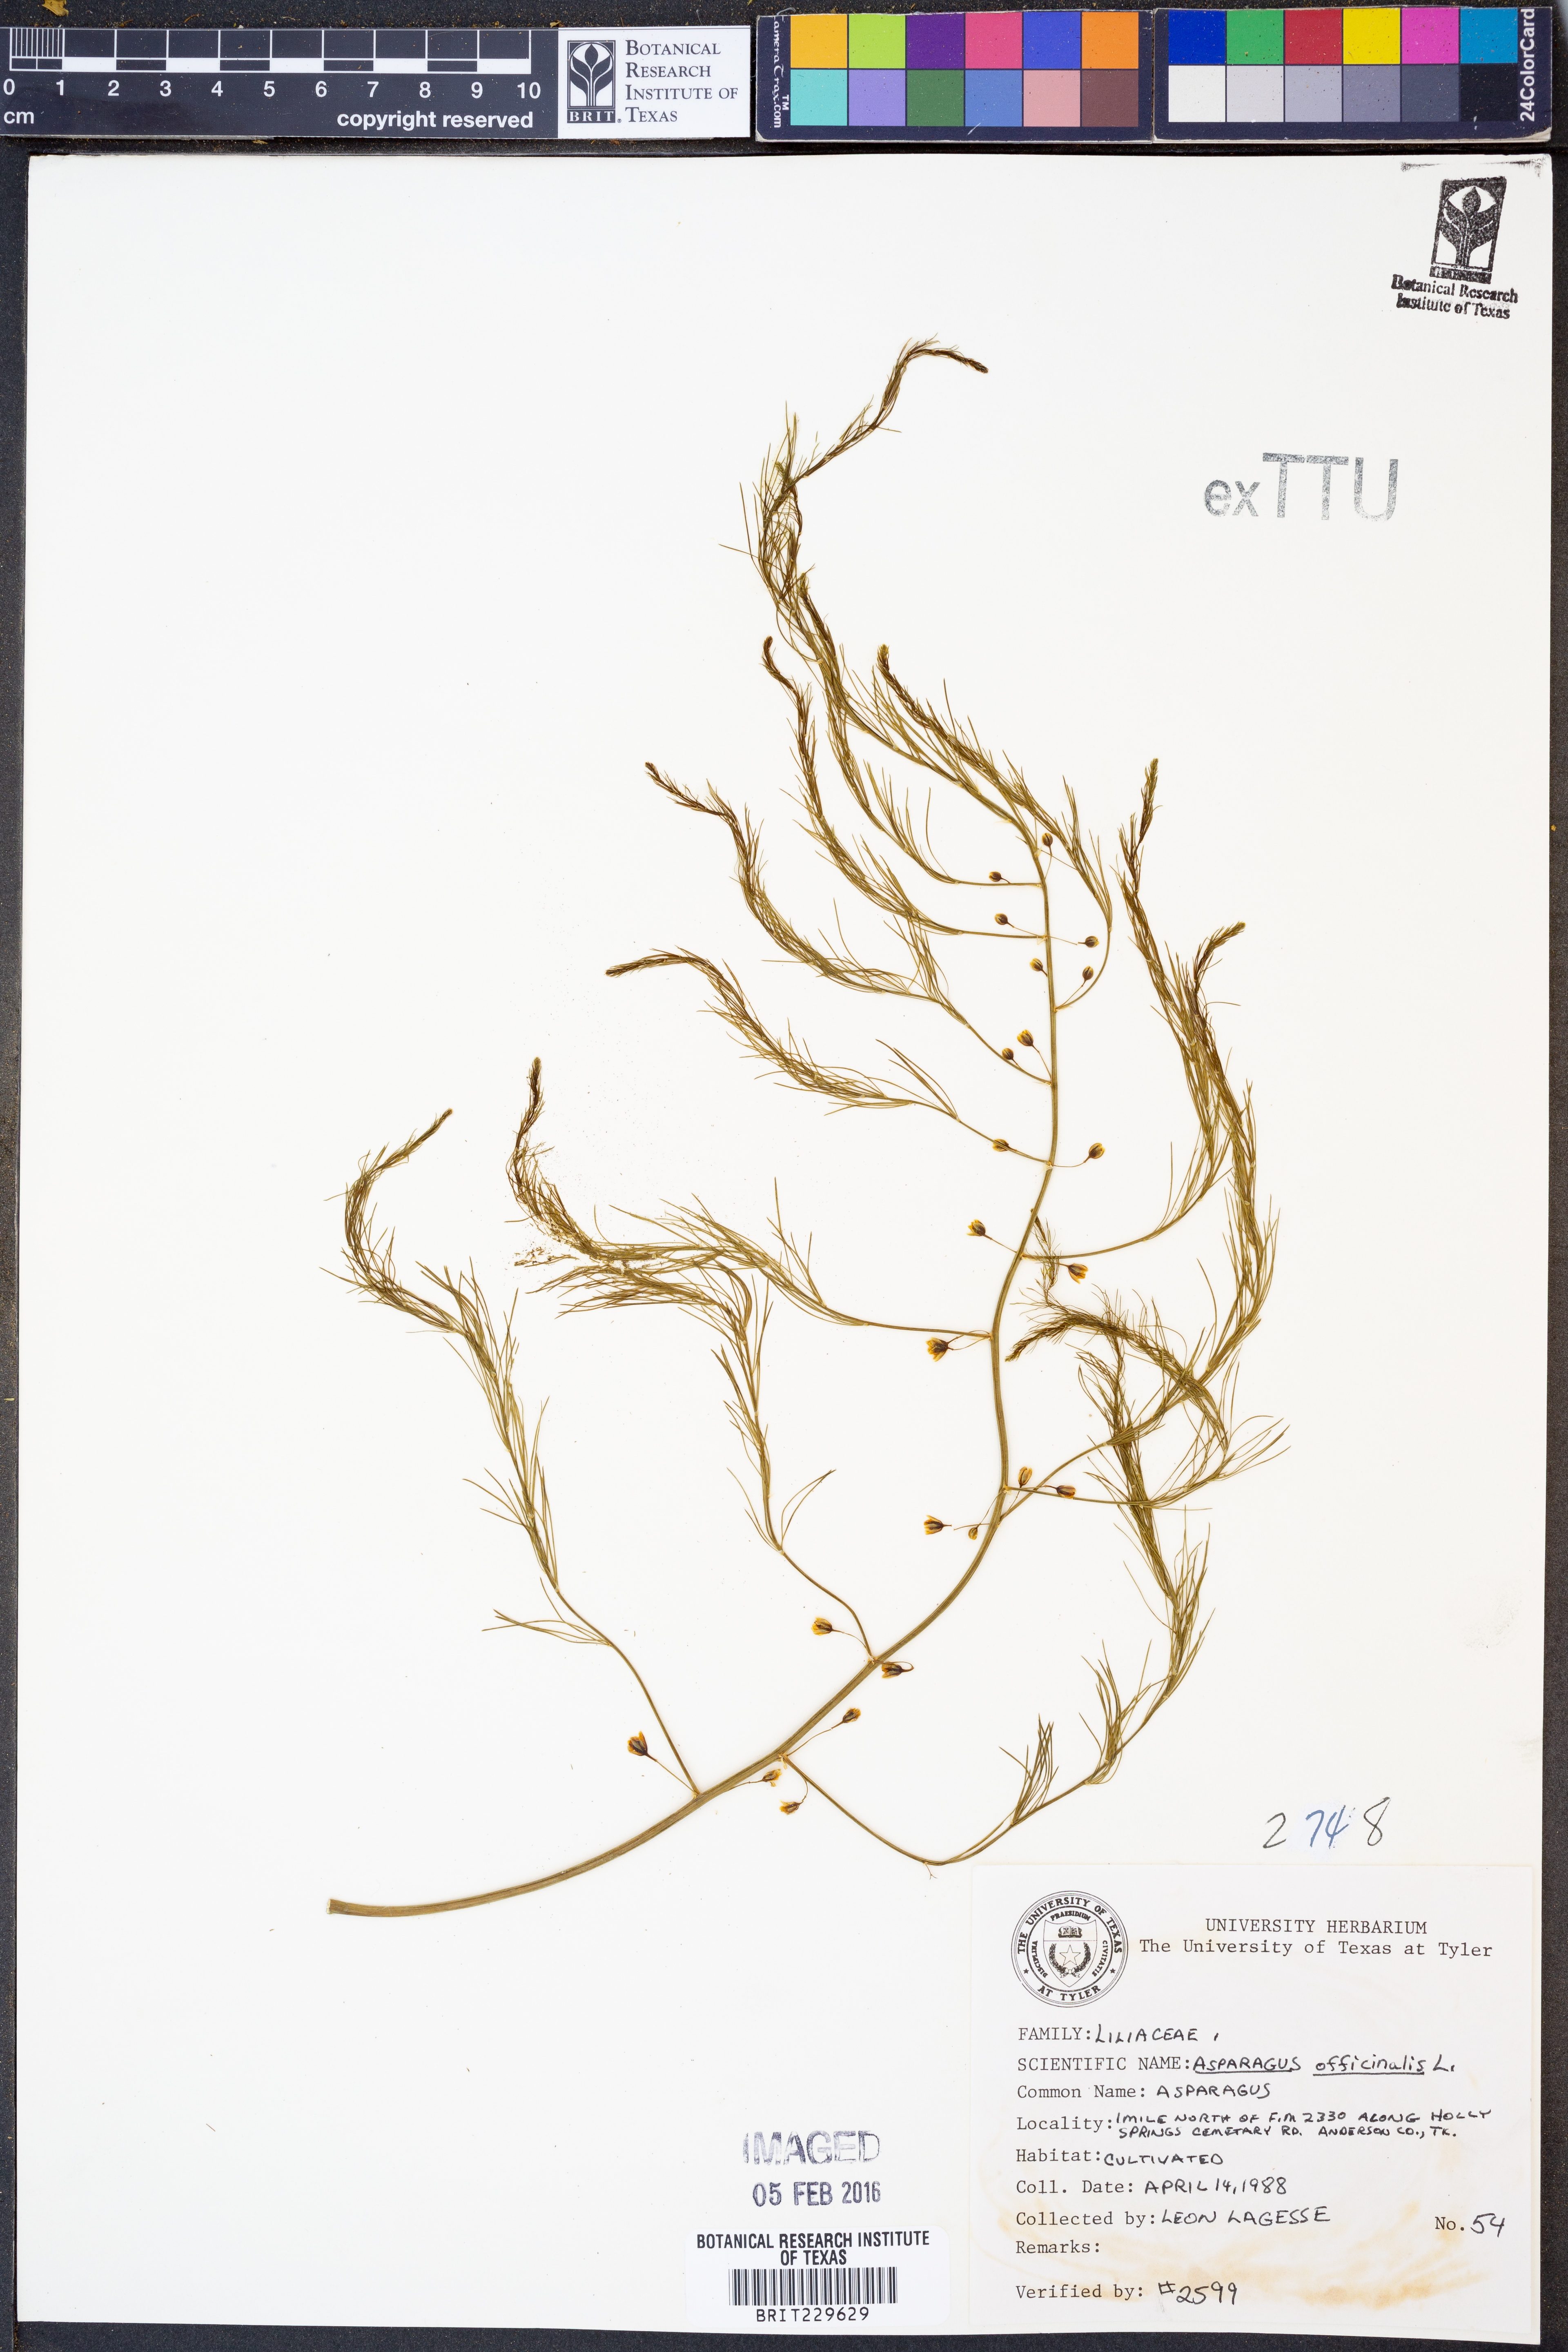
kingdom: Plantae
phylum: Tracheophyta
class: Liliopsida
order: Asparagales
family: Asparagaceae
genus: Asparagus
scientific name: Asparagus officinalis
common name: Garden asparagus
